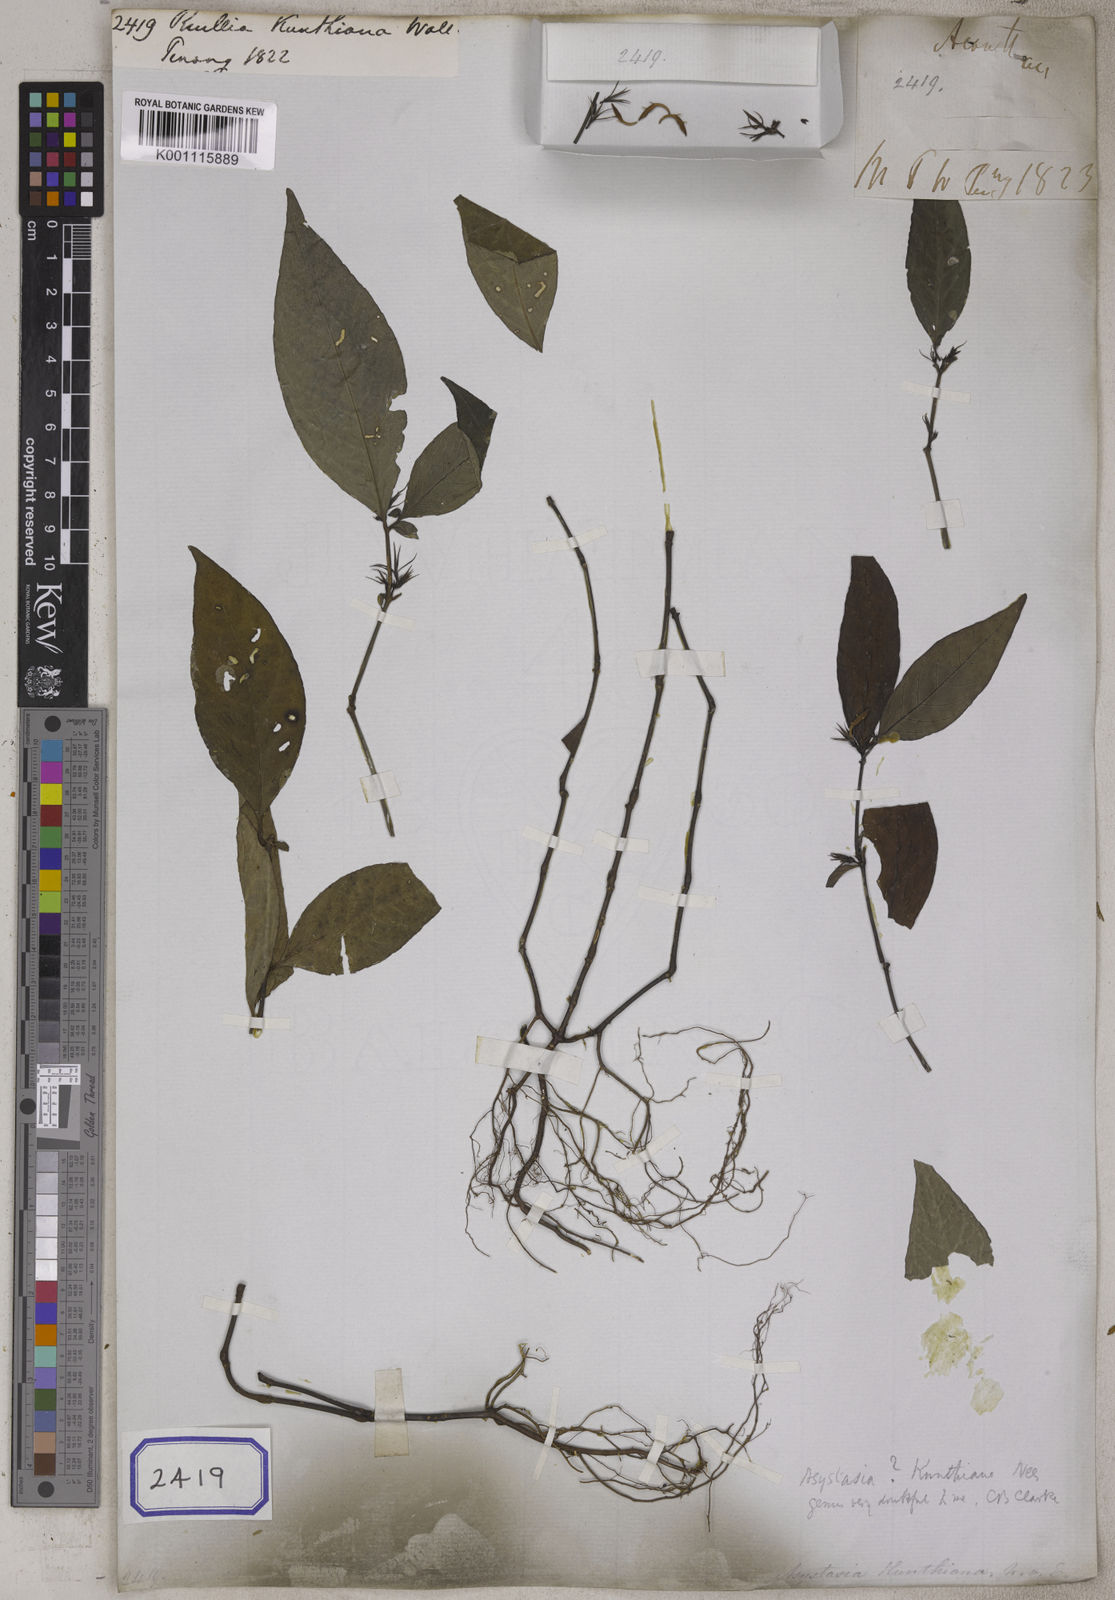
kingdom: Plantae
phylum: Tracheophyta
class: Magnoliopsida
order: Lamiales
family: Acanthaceae
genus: Ruellia
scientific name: Ruellia
